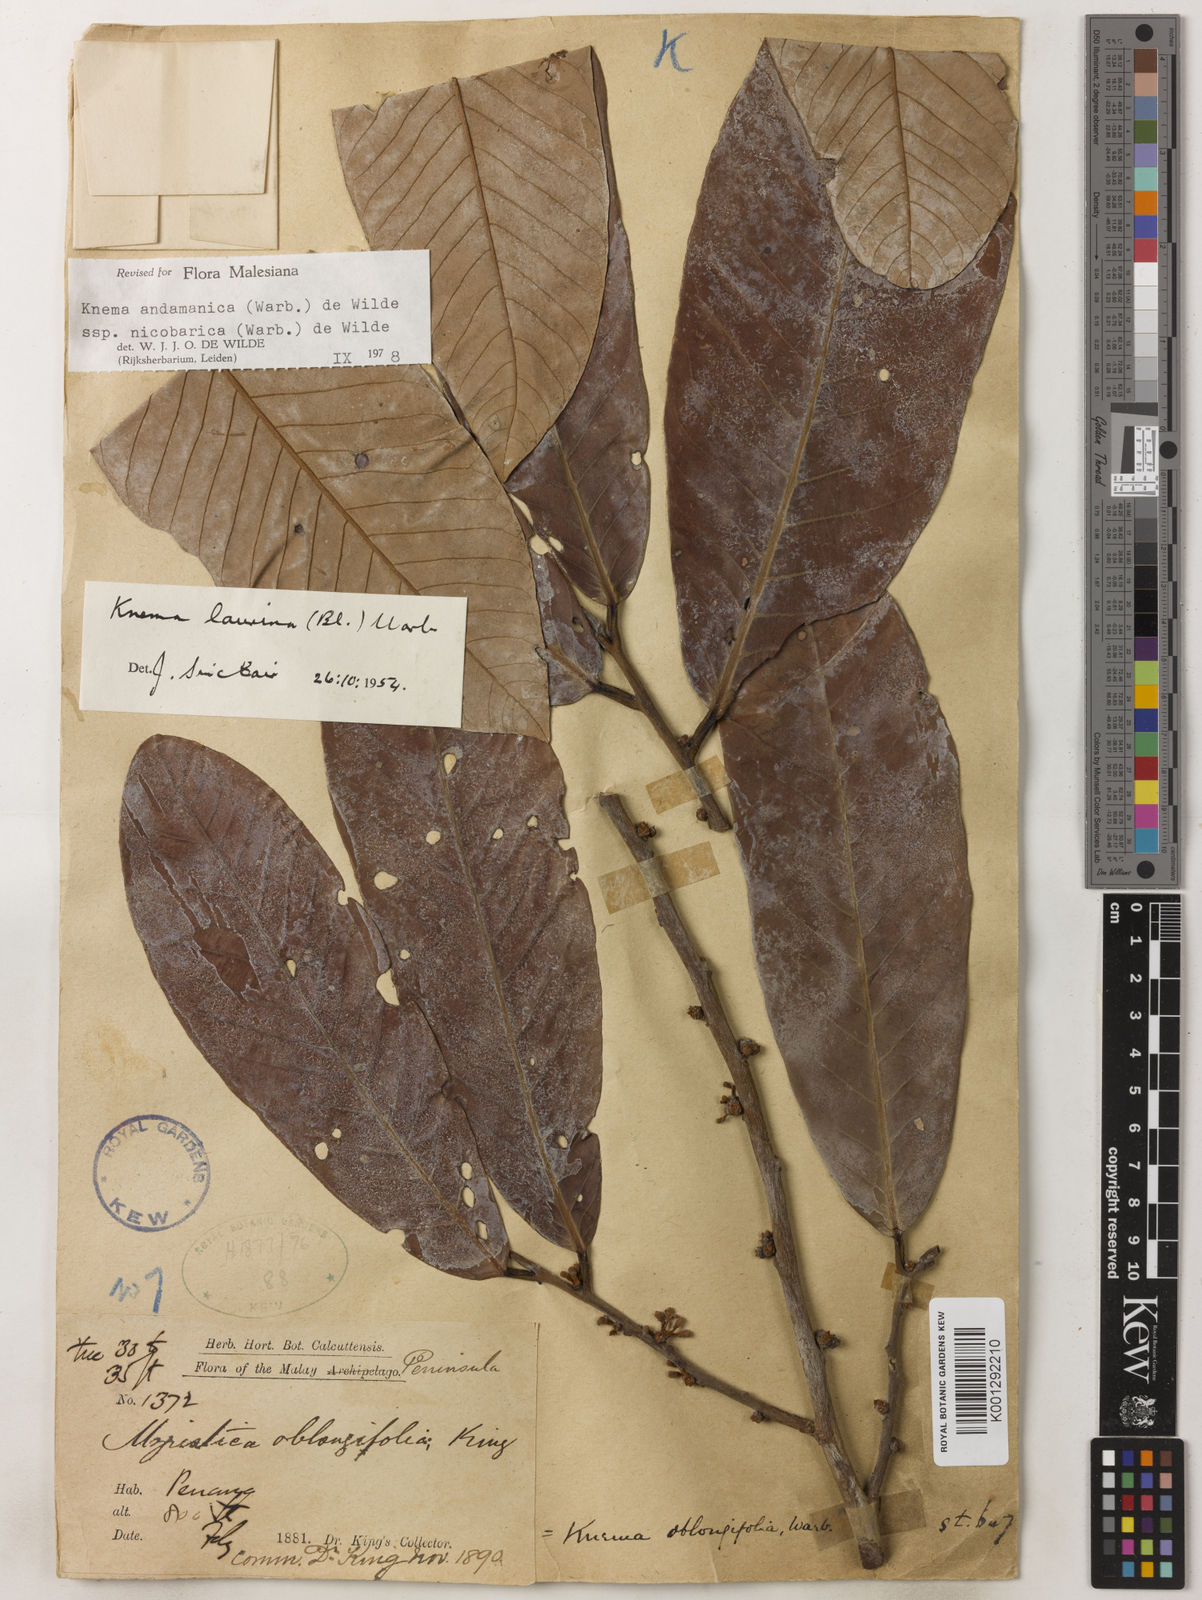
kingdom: Plantae
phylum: Tracheophyta
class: Magnoliopsida
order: Magnoliales
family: Myristicaceae
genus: Knema
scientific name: Knema andamanica
